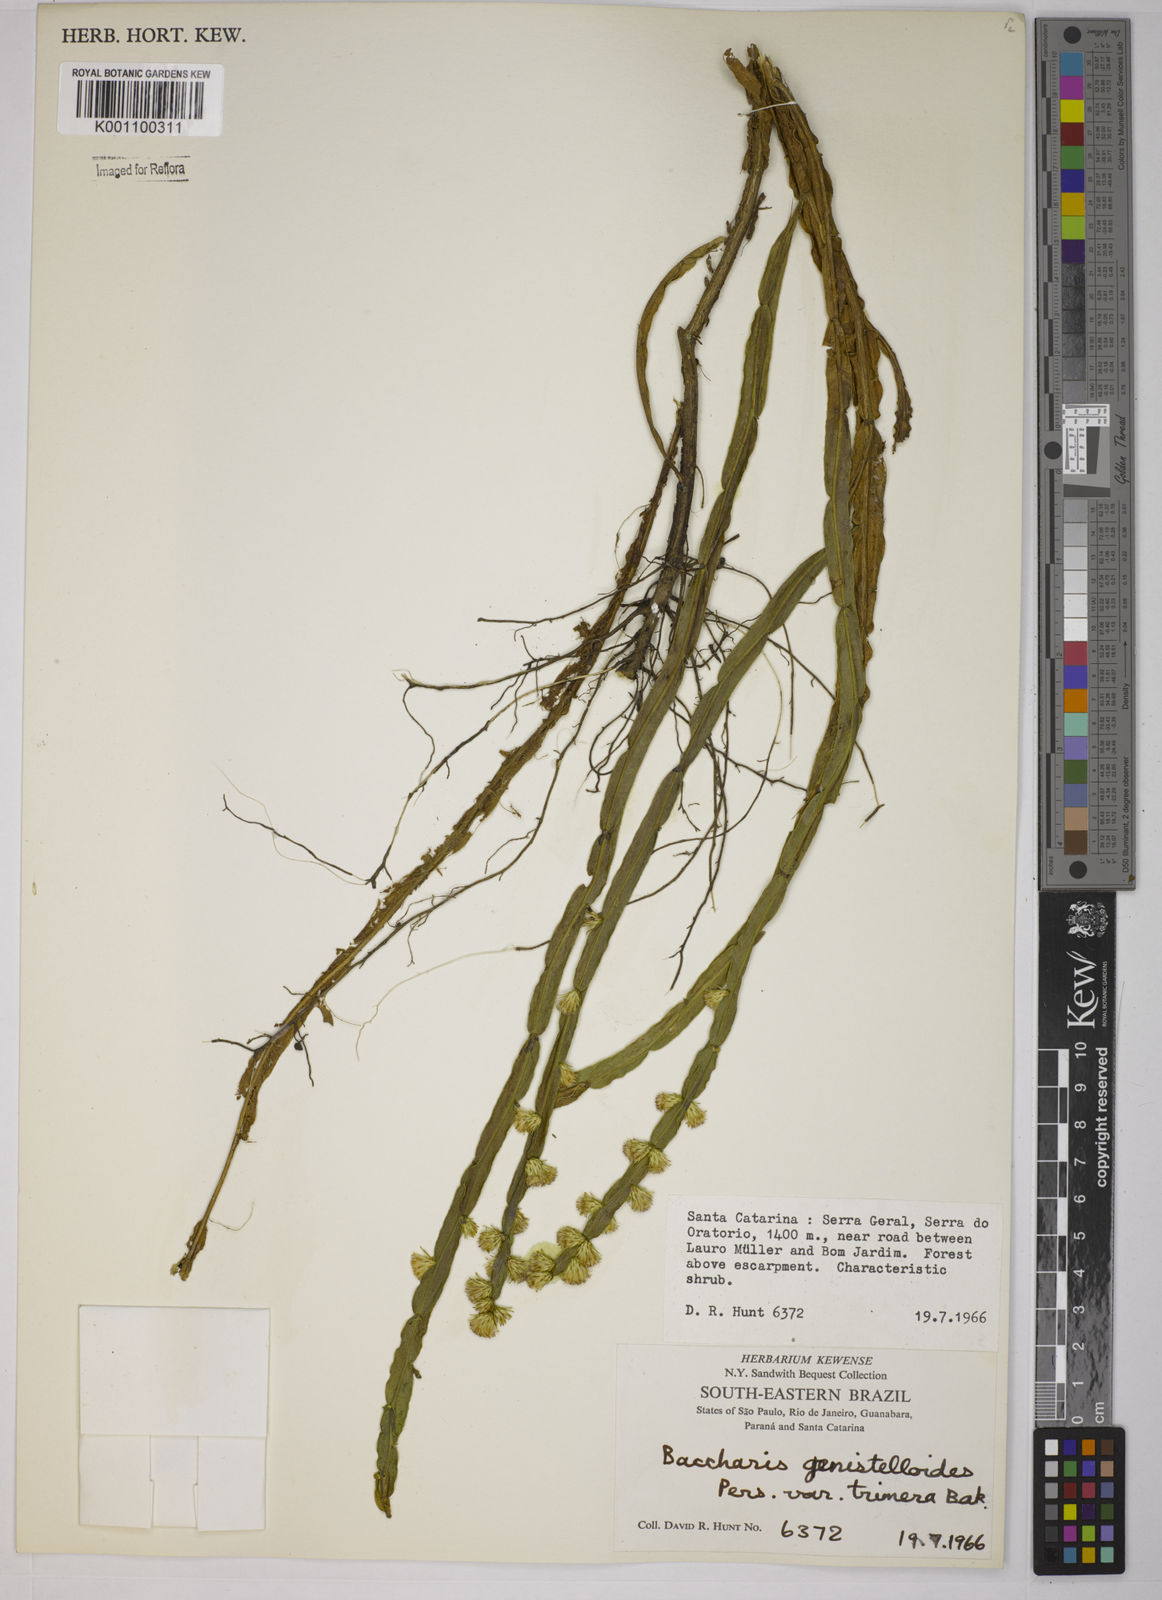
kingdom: Plantae
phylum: Tracheophyta
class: Magnoliopsida
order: Asterales
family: Asteraceae
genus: Baccharis
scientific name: Baccharis trimera
